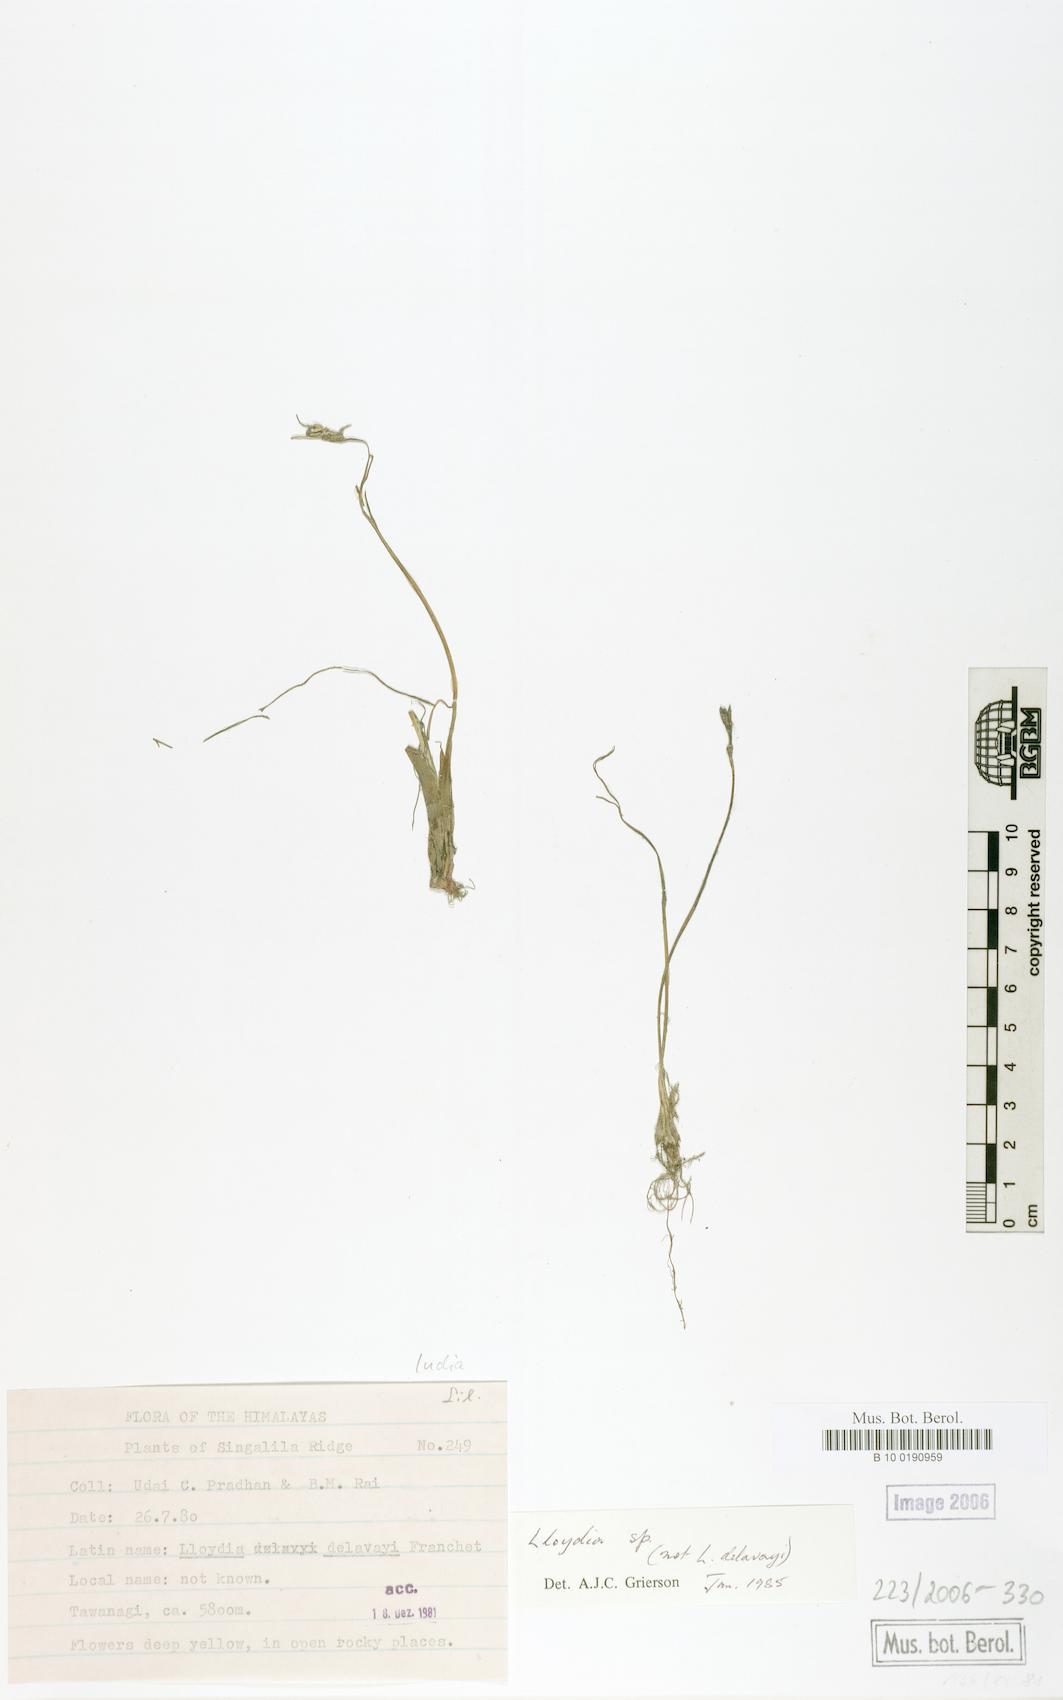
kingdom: Plantae
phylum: Tracheophyta
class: Liliopsida
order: Liliales
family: Liliaceae
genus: Lloydia
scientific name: Lloydia
